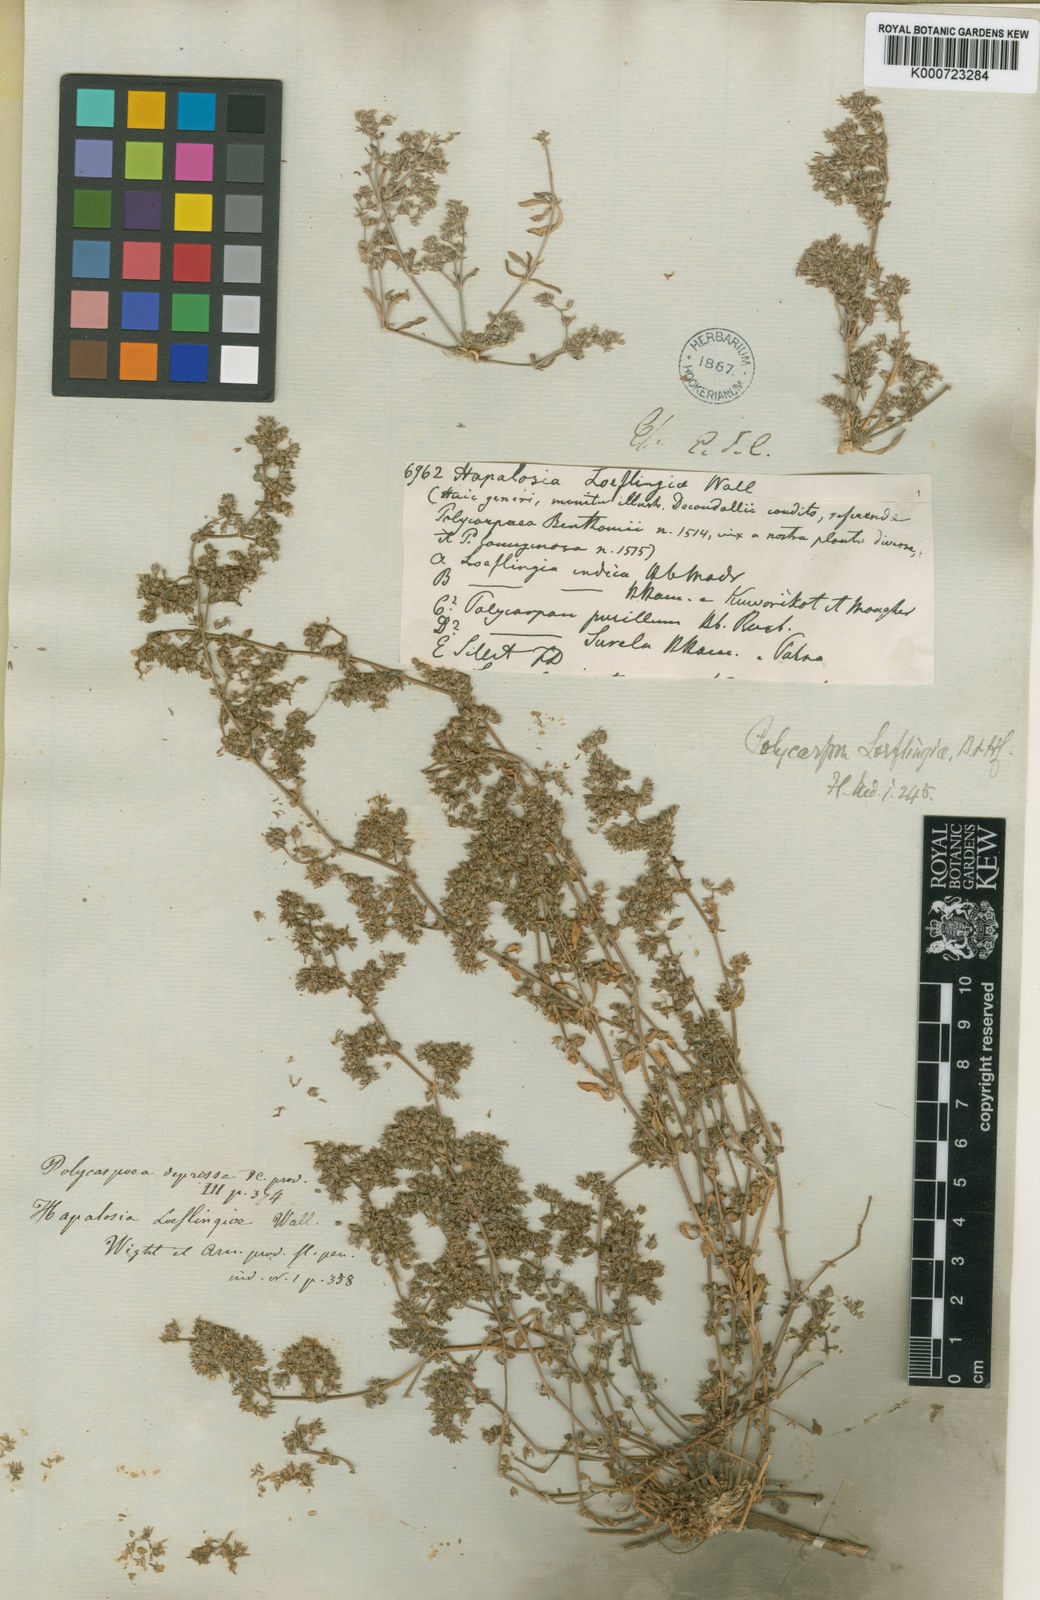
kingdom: Plantae
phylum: Tracheophyta
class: Magnoliopsida
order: Caryophyllales
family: Caryophyllaceae
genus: Polycarpon
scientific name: Polycarpon prostratum
